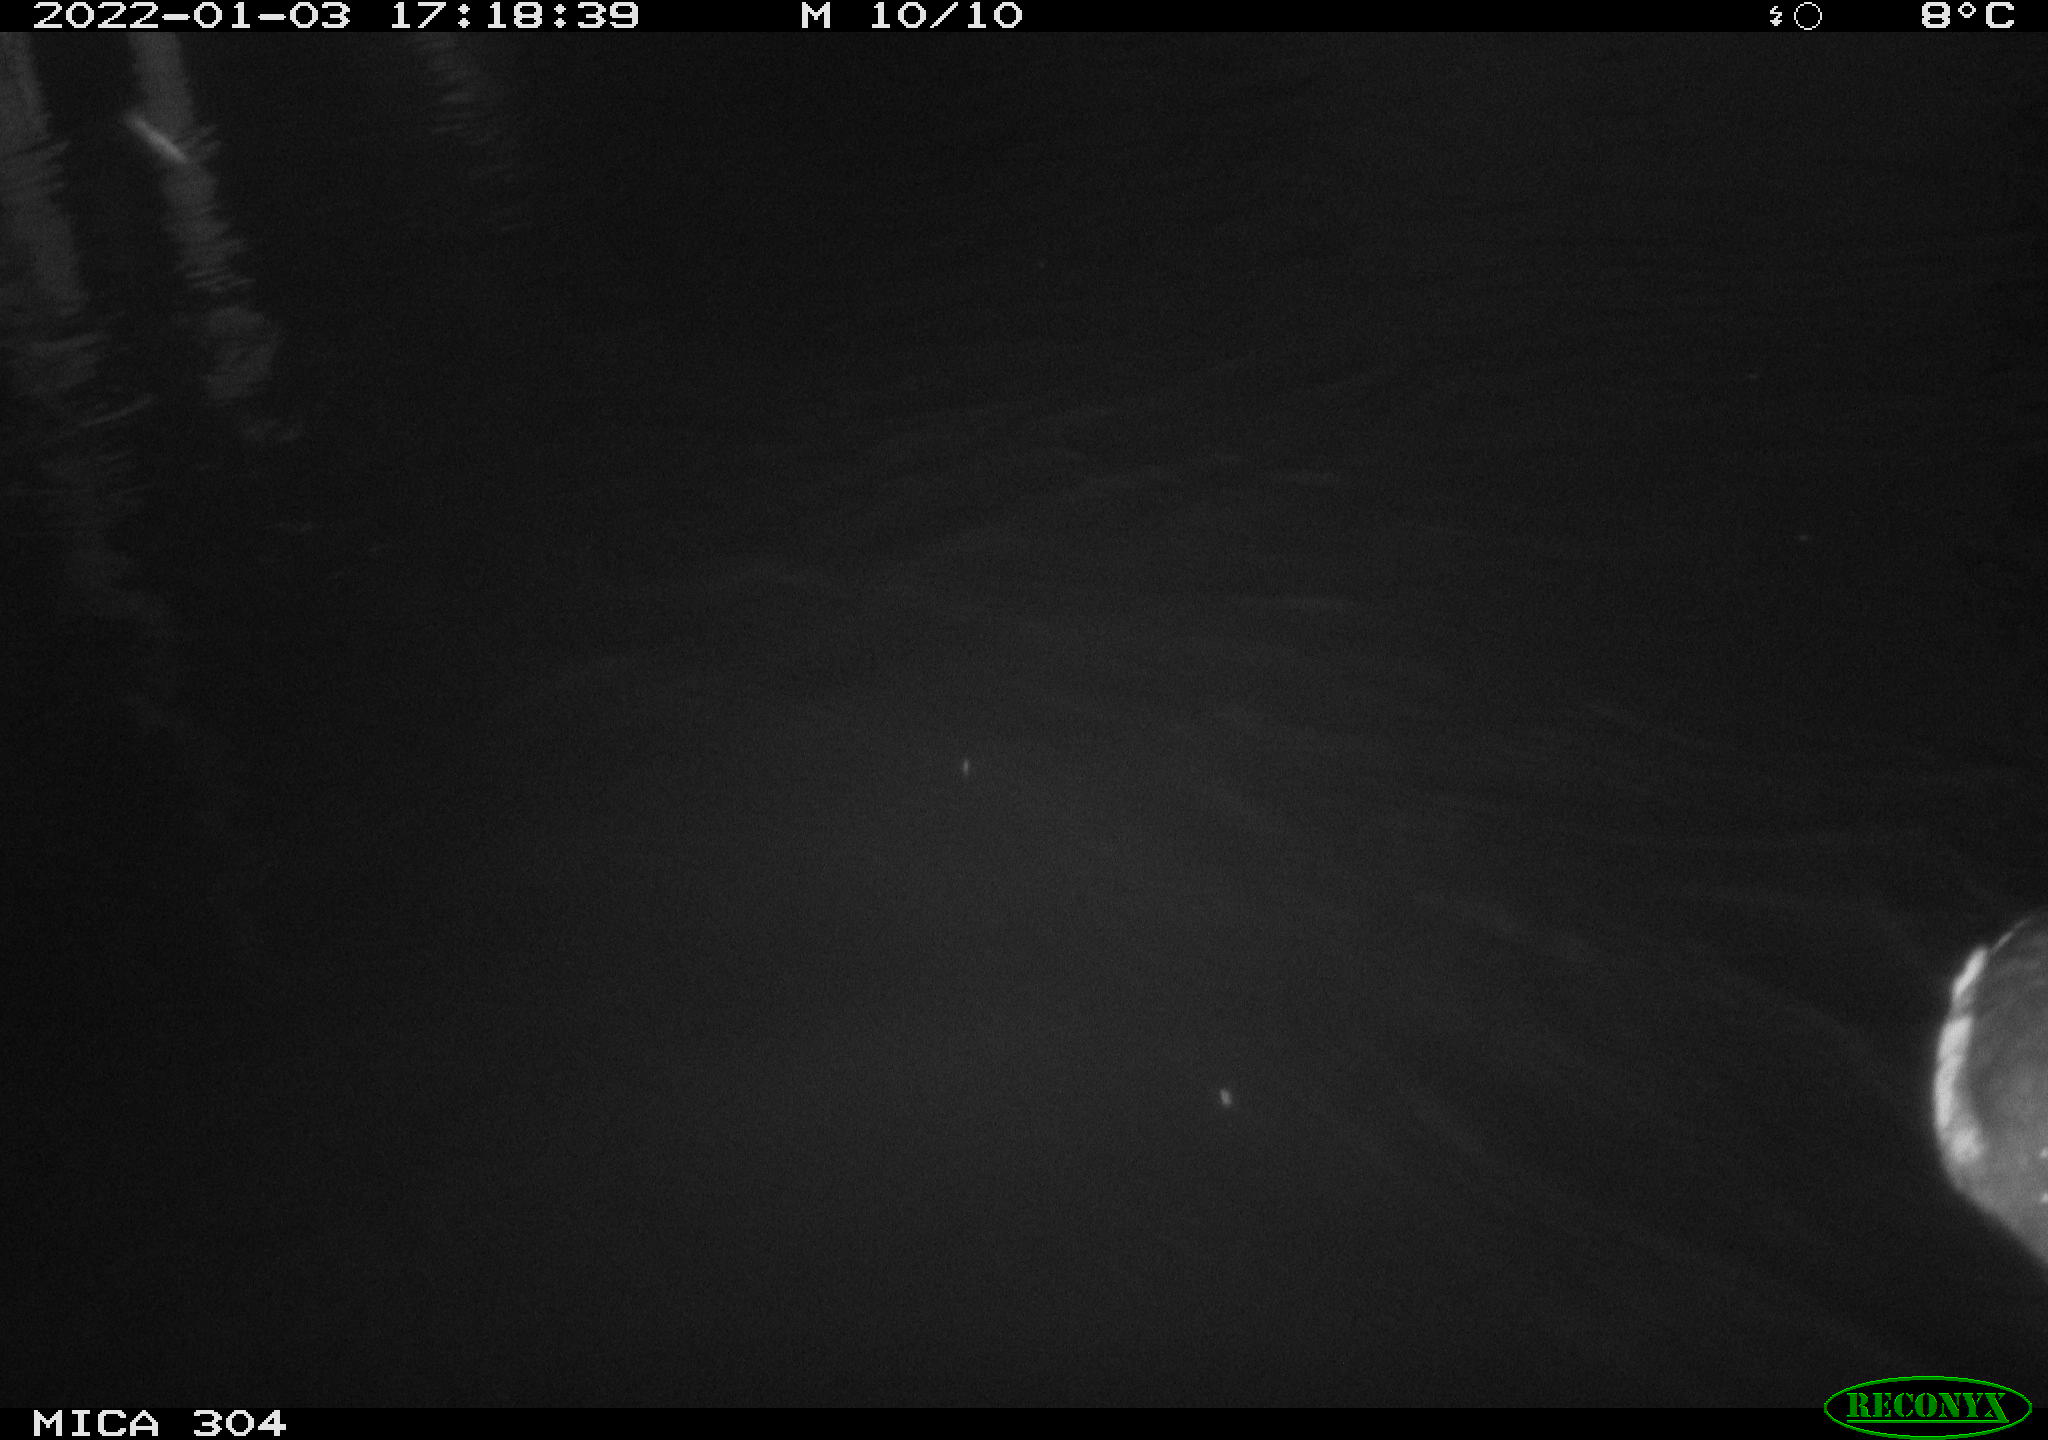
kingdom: Animalia
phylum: Chordata
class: Aves
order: Anseriformes
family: Anatidae
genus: Anas
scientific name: Anas
